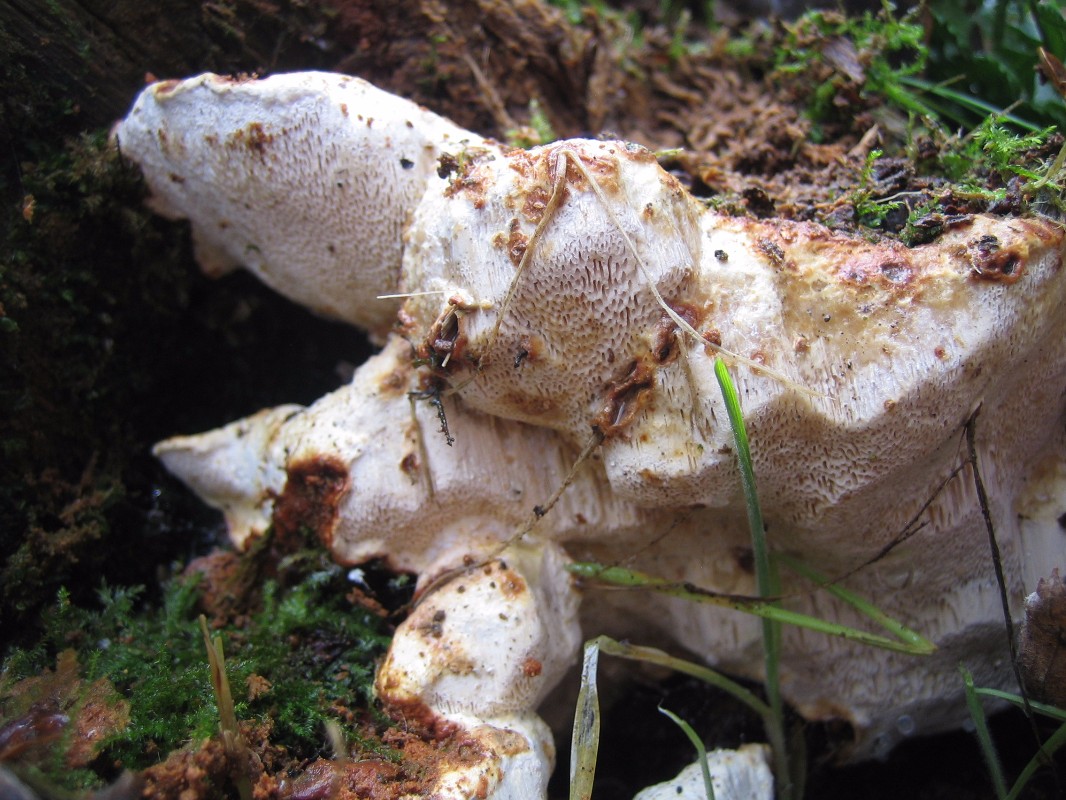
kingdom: Fungi
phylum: Basidiomycota
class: Agaricomycetes
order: Russulales
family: Bondarzewiaceae
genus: Heterobasidion
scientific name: Heterobasidion annosum
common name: almindelig rodfordærver
